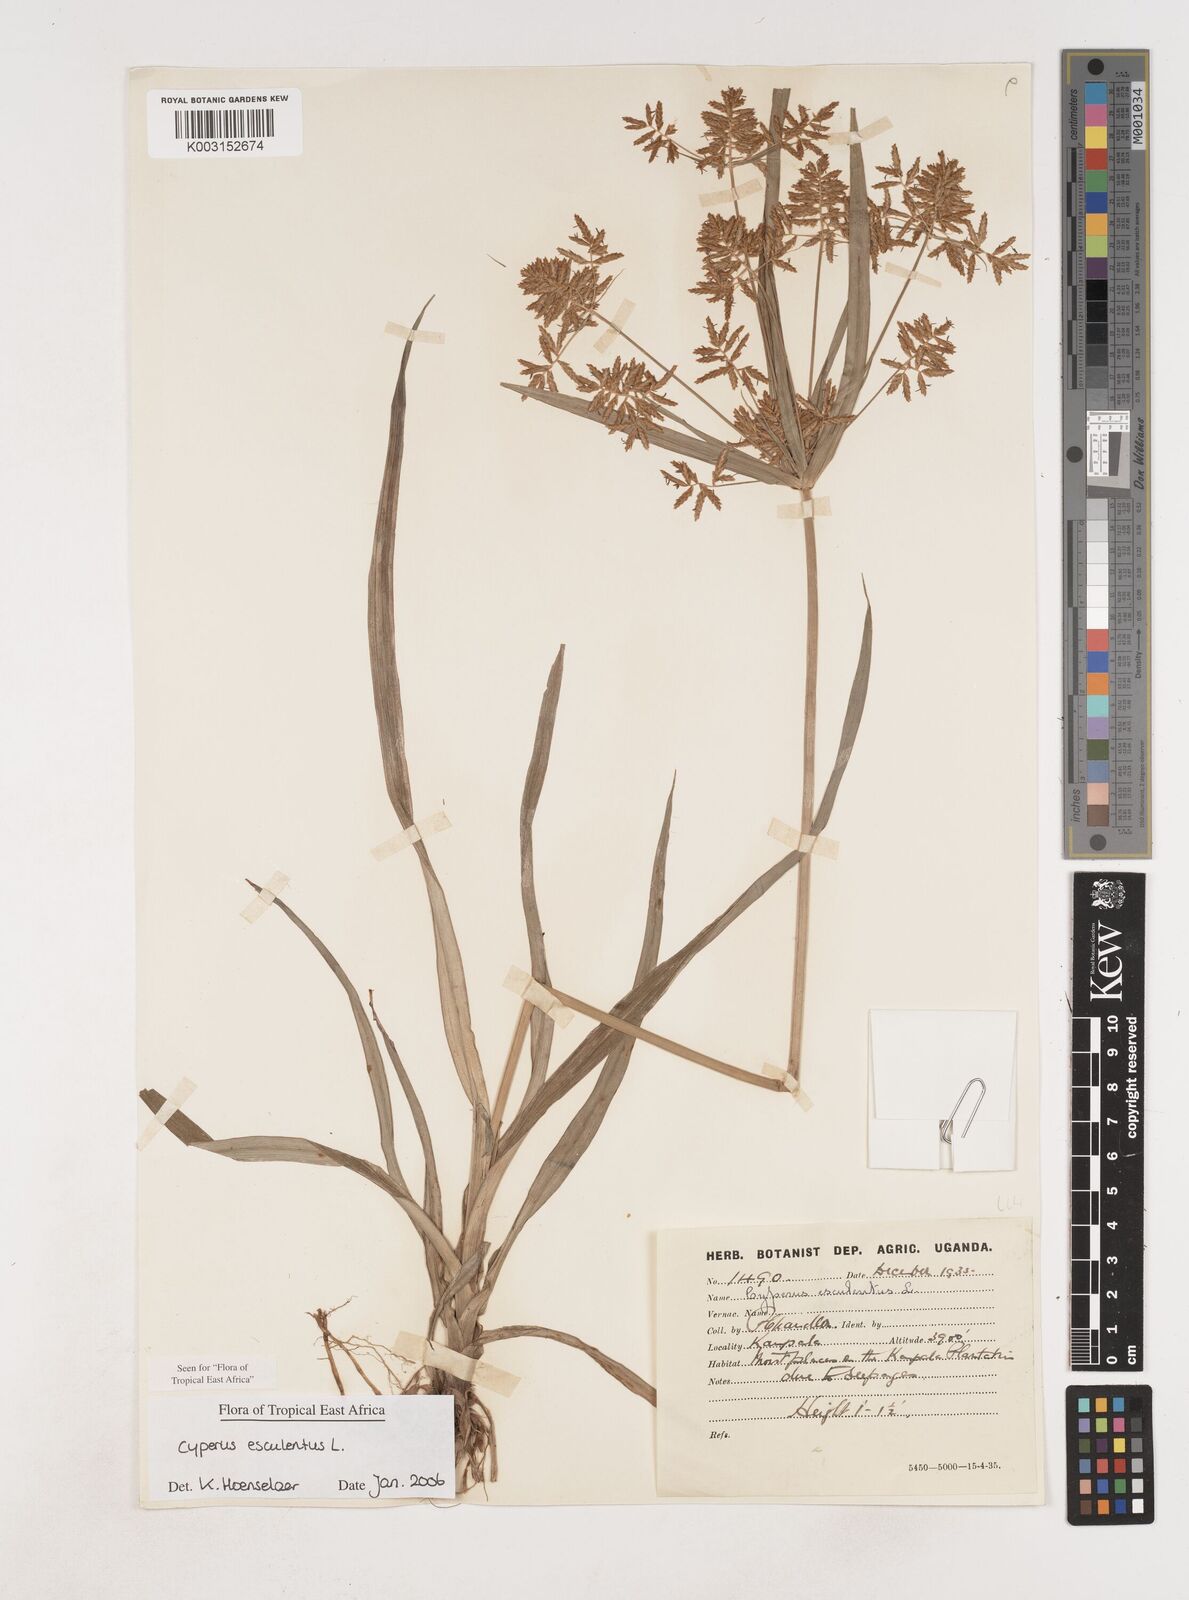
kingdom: Plantae
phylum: Tracheophyta
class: Liliopsida
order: Poales
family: Cyperaceae
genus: Cyperus
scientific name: Cyperus esculentus
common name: Yellow nutsedge
